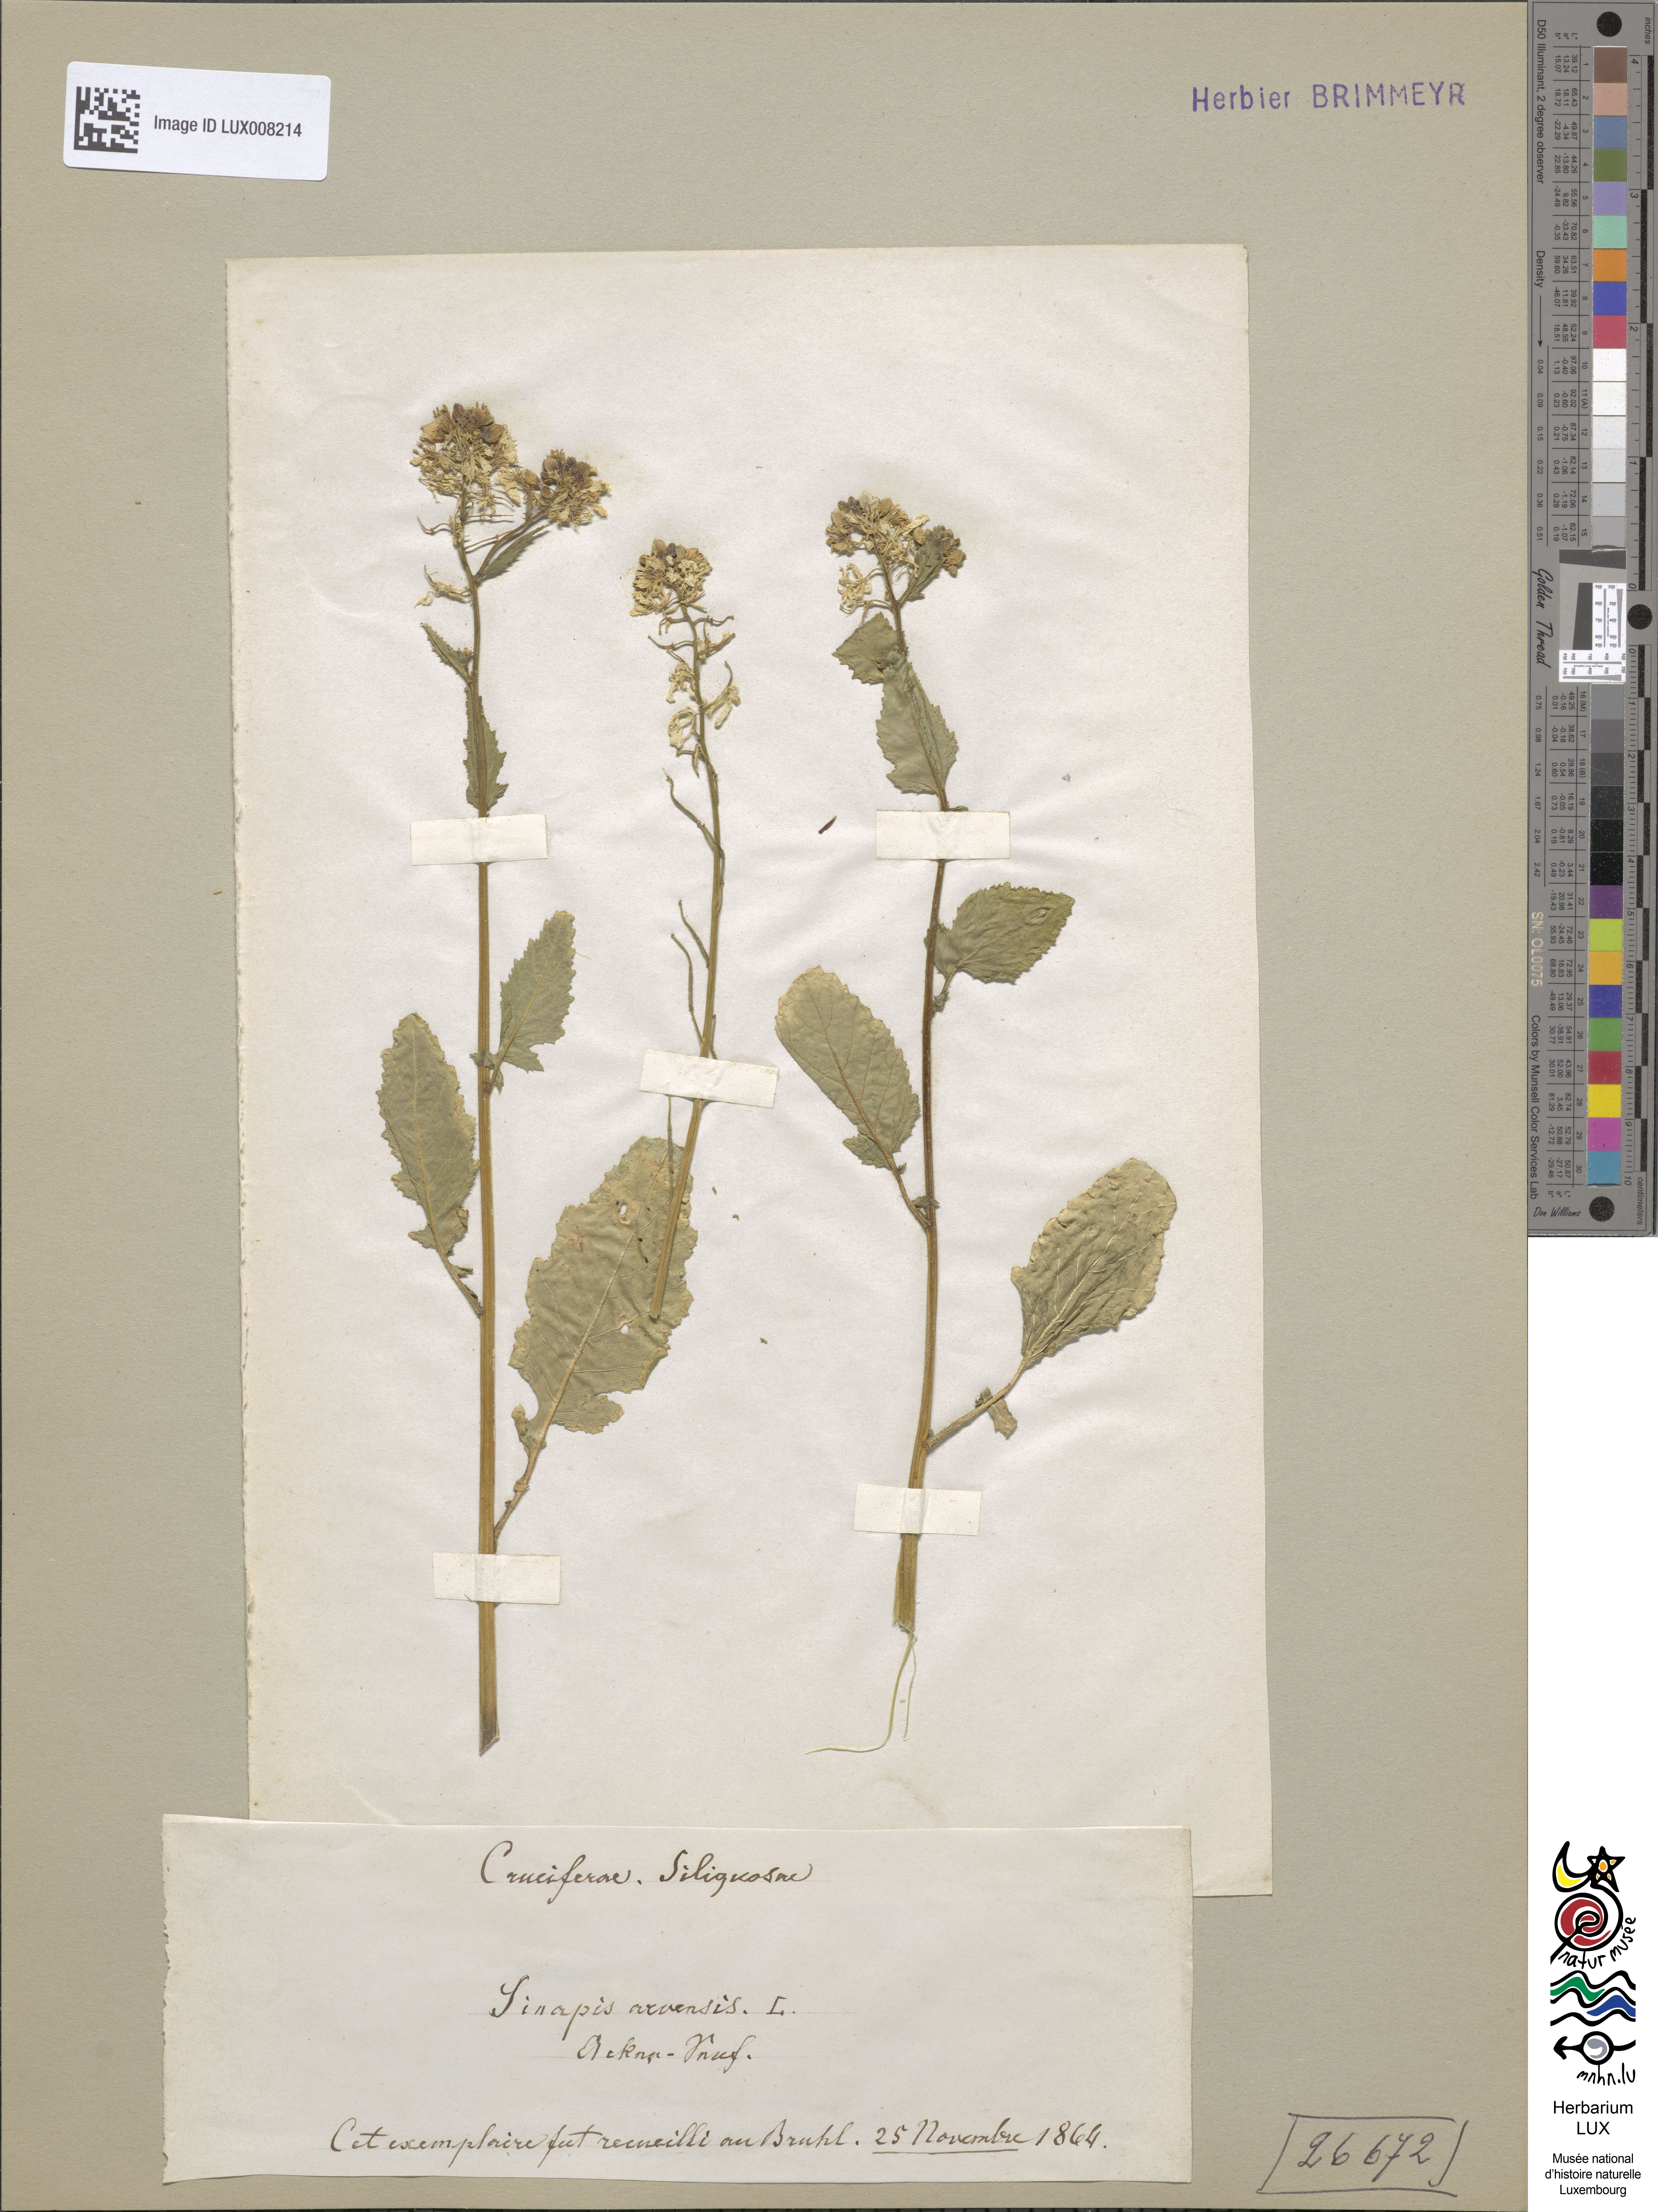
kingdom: Plantae
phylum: Tracheophyta
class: Magnoliopsida
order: Brassicales
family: Brassicaceae
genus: Sinapis
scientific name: Sinapis arvensis
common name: Charlock
